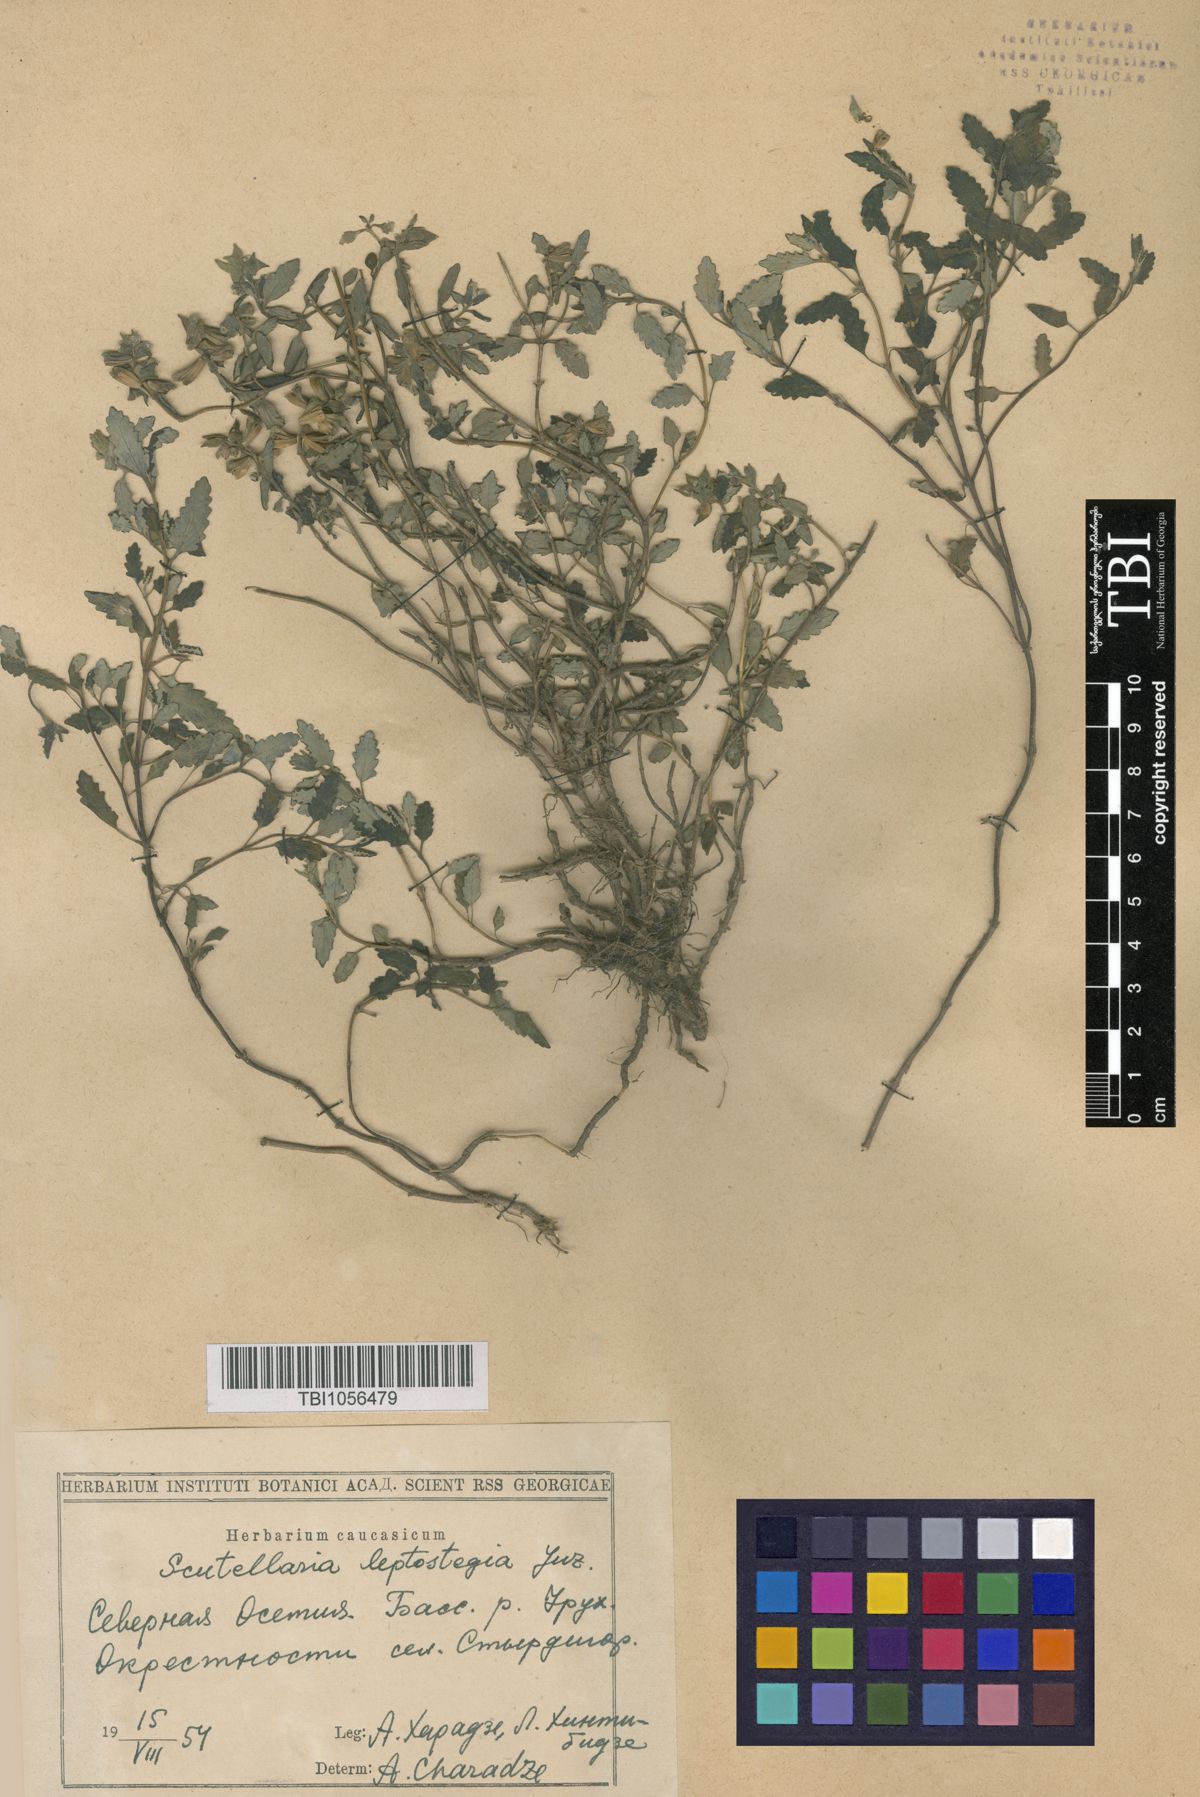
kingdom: Plantae
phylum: Tracheophyta
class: Magnoliopsida
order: Lamiales
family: Lamiaceae
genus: Scutellaria
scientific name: Scutellaria leptostegia
